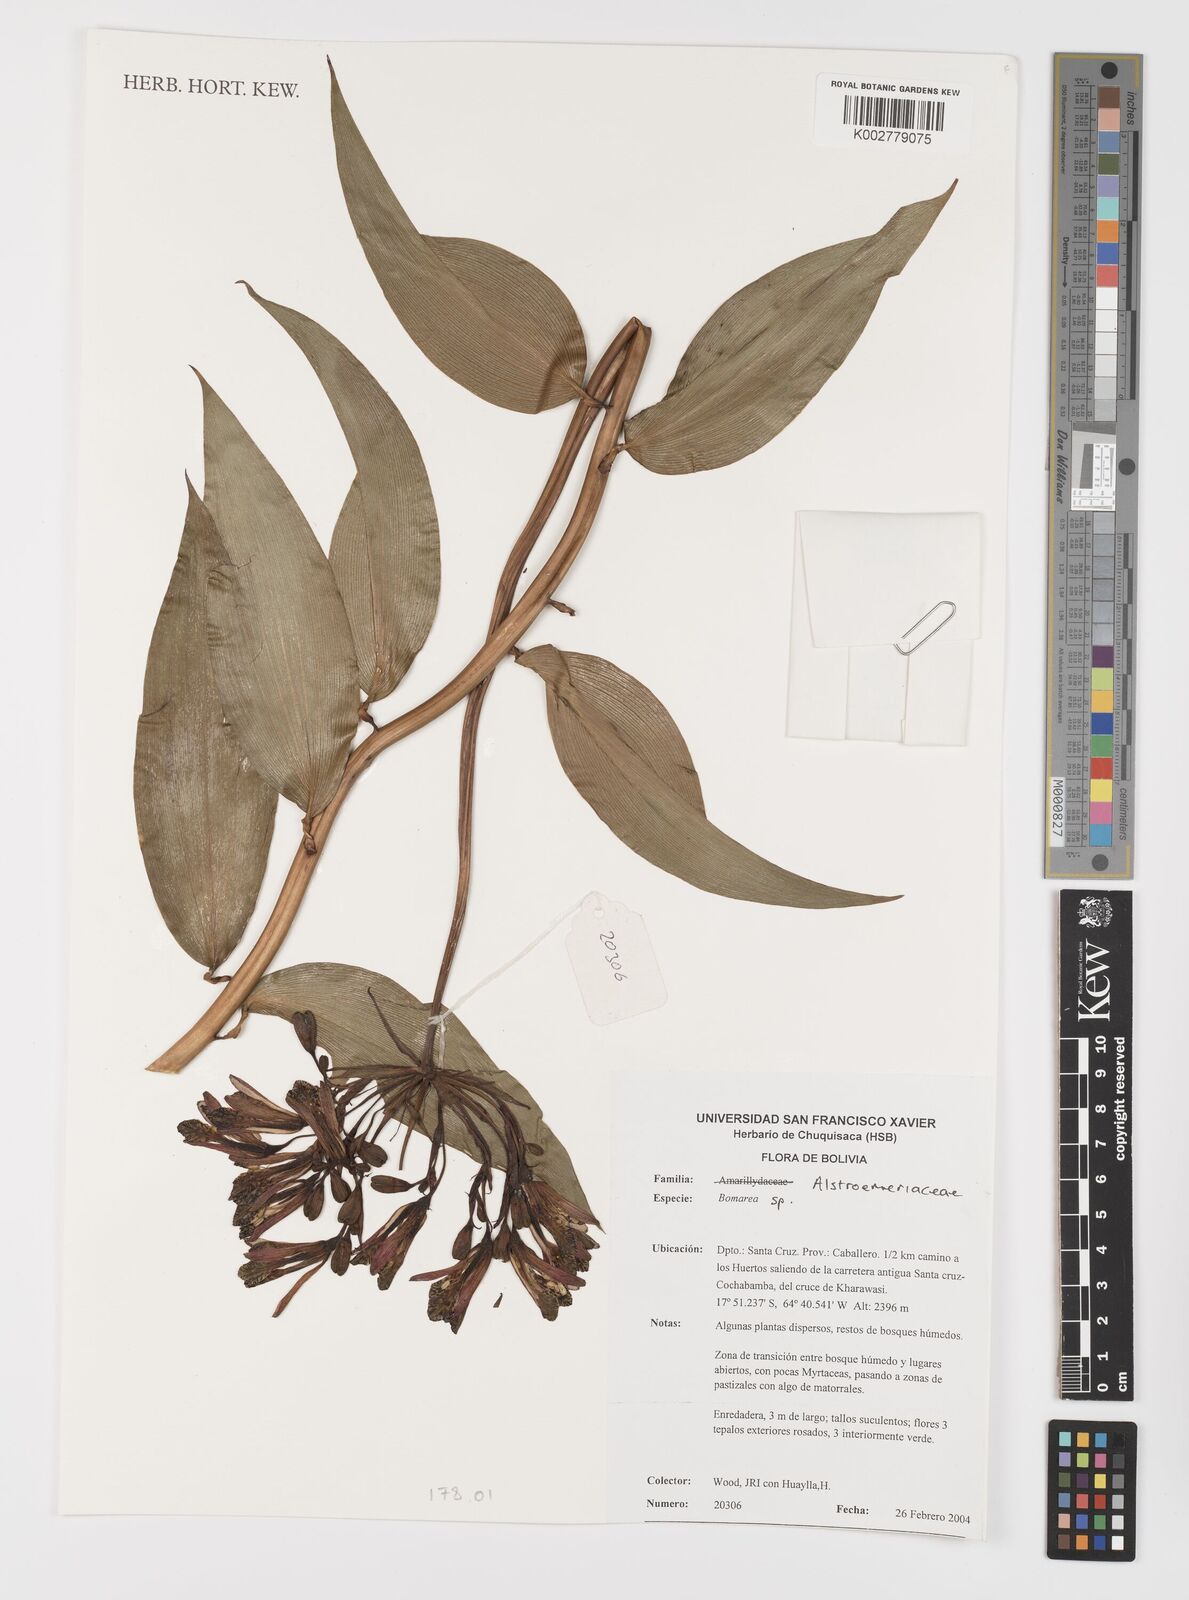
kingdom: Plantae
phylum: Tracheophyta
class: Liliopsida
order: Liliales
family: Alstroemeriaceae
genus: Bomarea
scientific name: Bomarea
